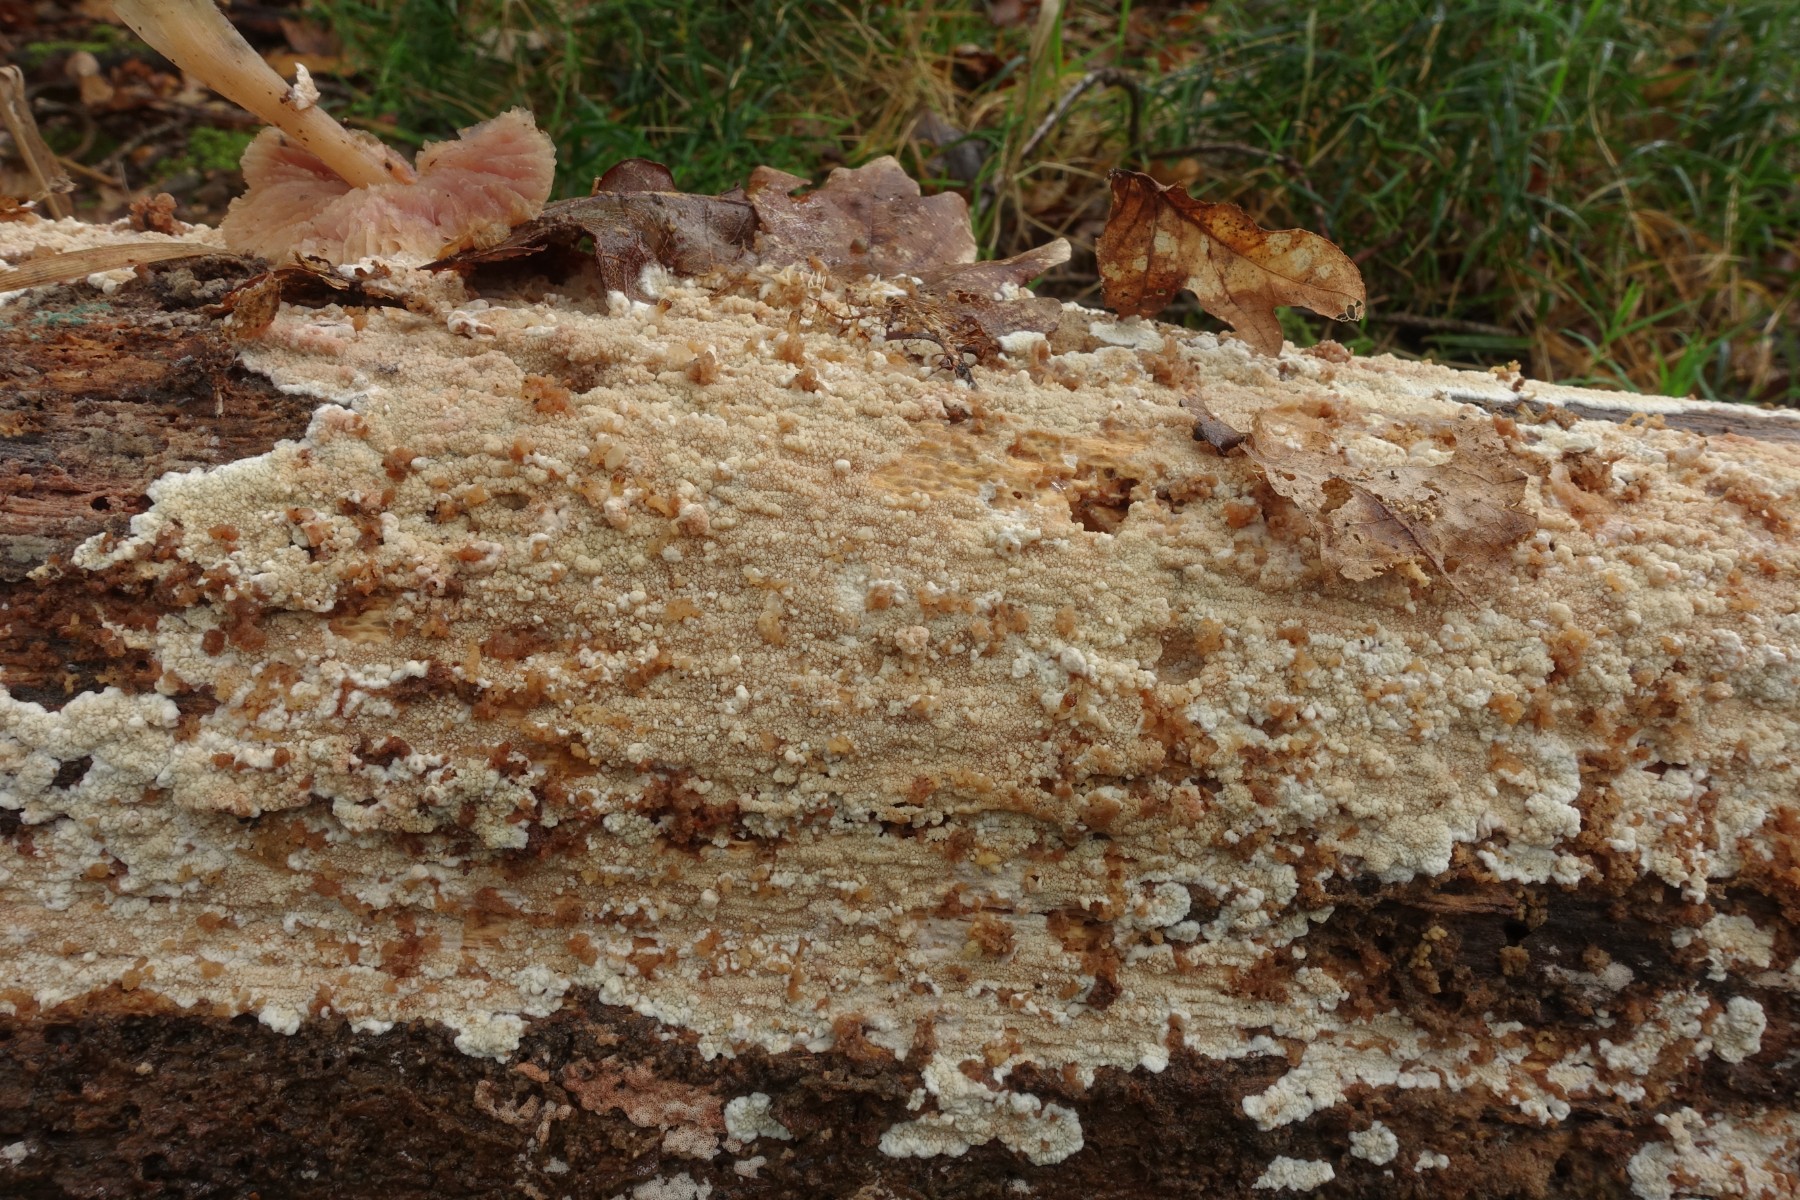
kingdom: Fungi
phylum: Basidiomycota
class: Agaricomycetes
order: Polyporales
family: Irpicaceae
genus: Crystallicutis
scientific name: Crystallicutis serpens
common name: gråviolet barkhinde
